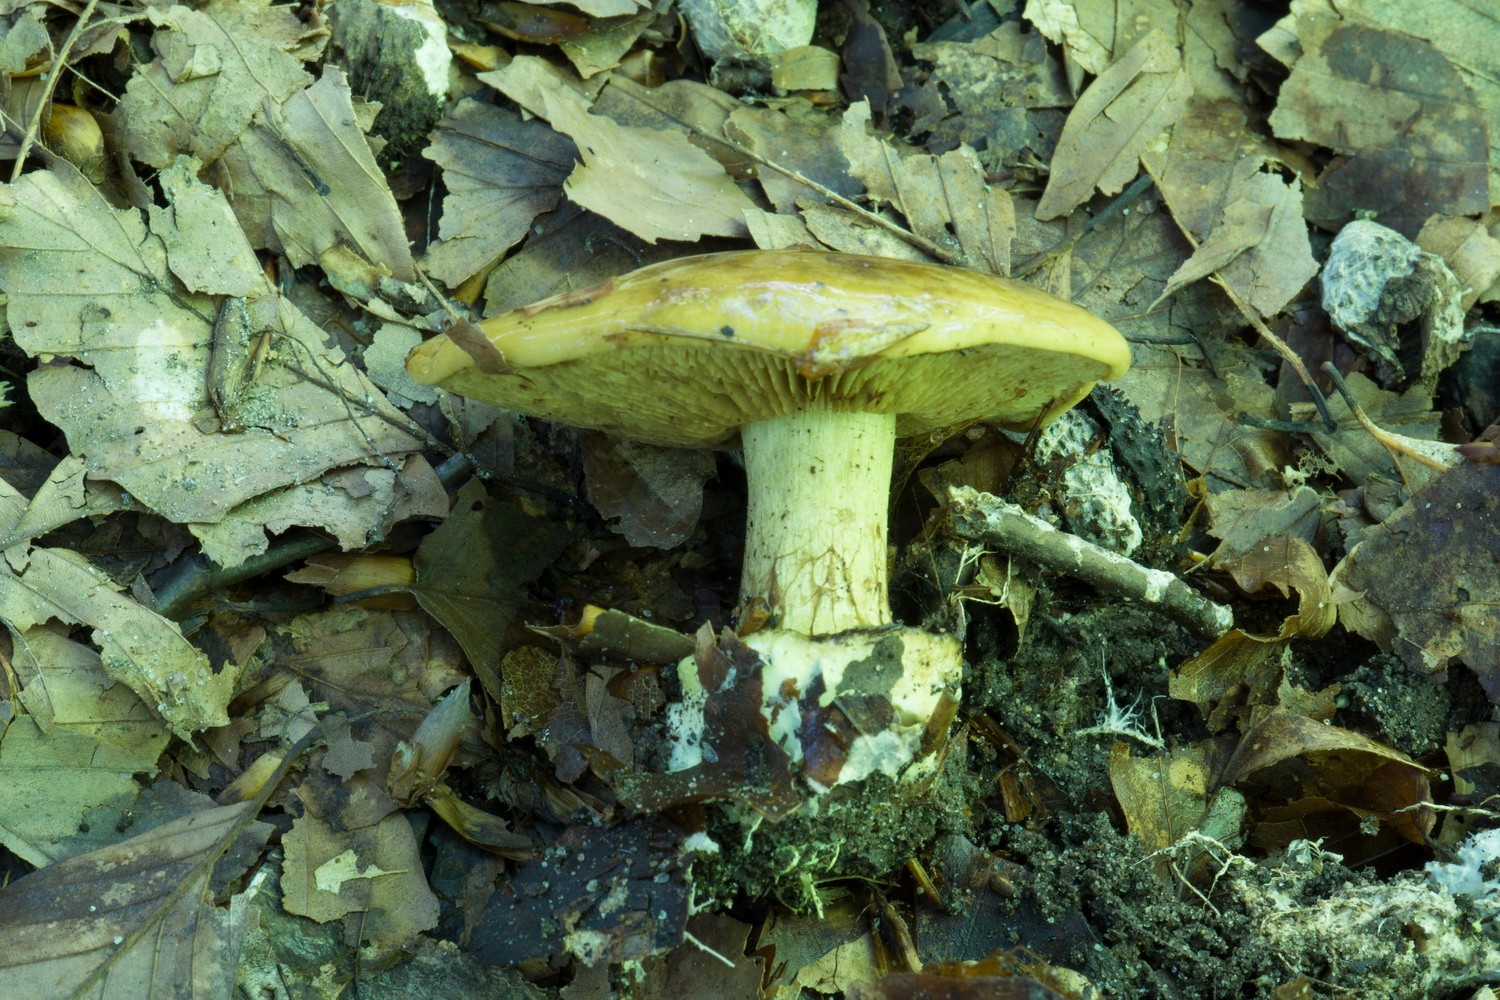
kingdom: Fungi
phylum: Basidiomycota
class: Agaricomycetes
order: Agaricales
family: Cortinariaceae
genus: Calonarius
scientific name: Calonarius citrinus
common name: citrongul slørhat
